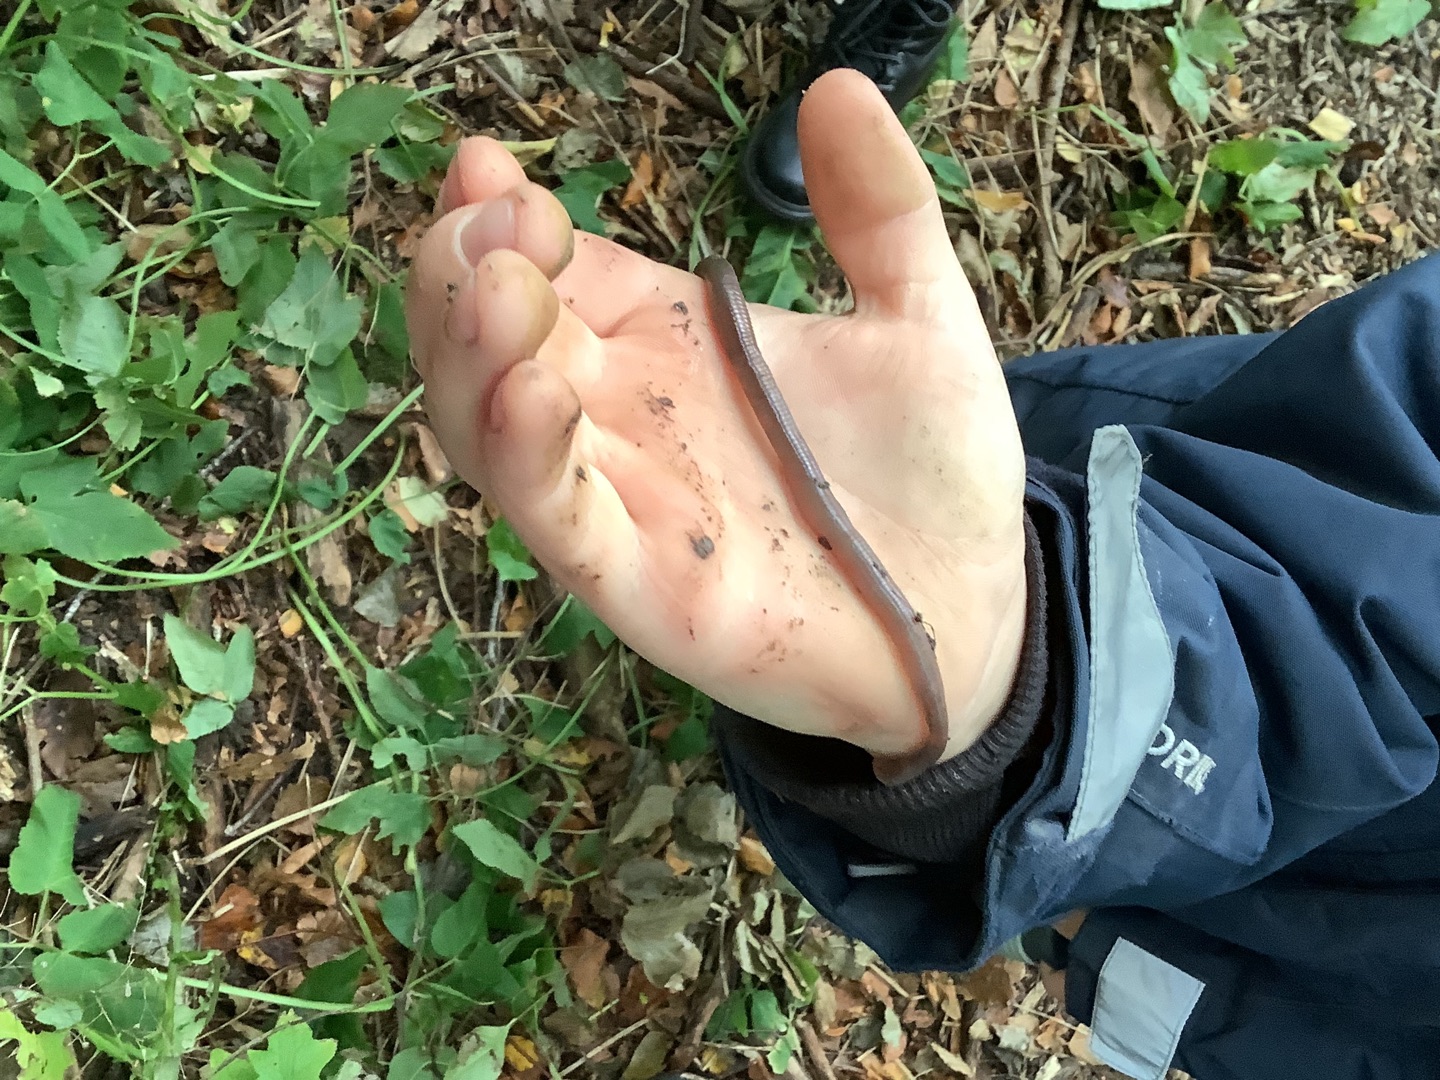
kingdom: Animalia
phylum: Annelida
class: Clitellata
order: Crassiclitellata
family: Lumbricidae
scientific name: Lumbricidae
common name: Regnorme
